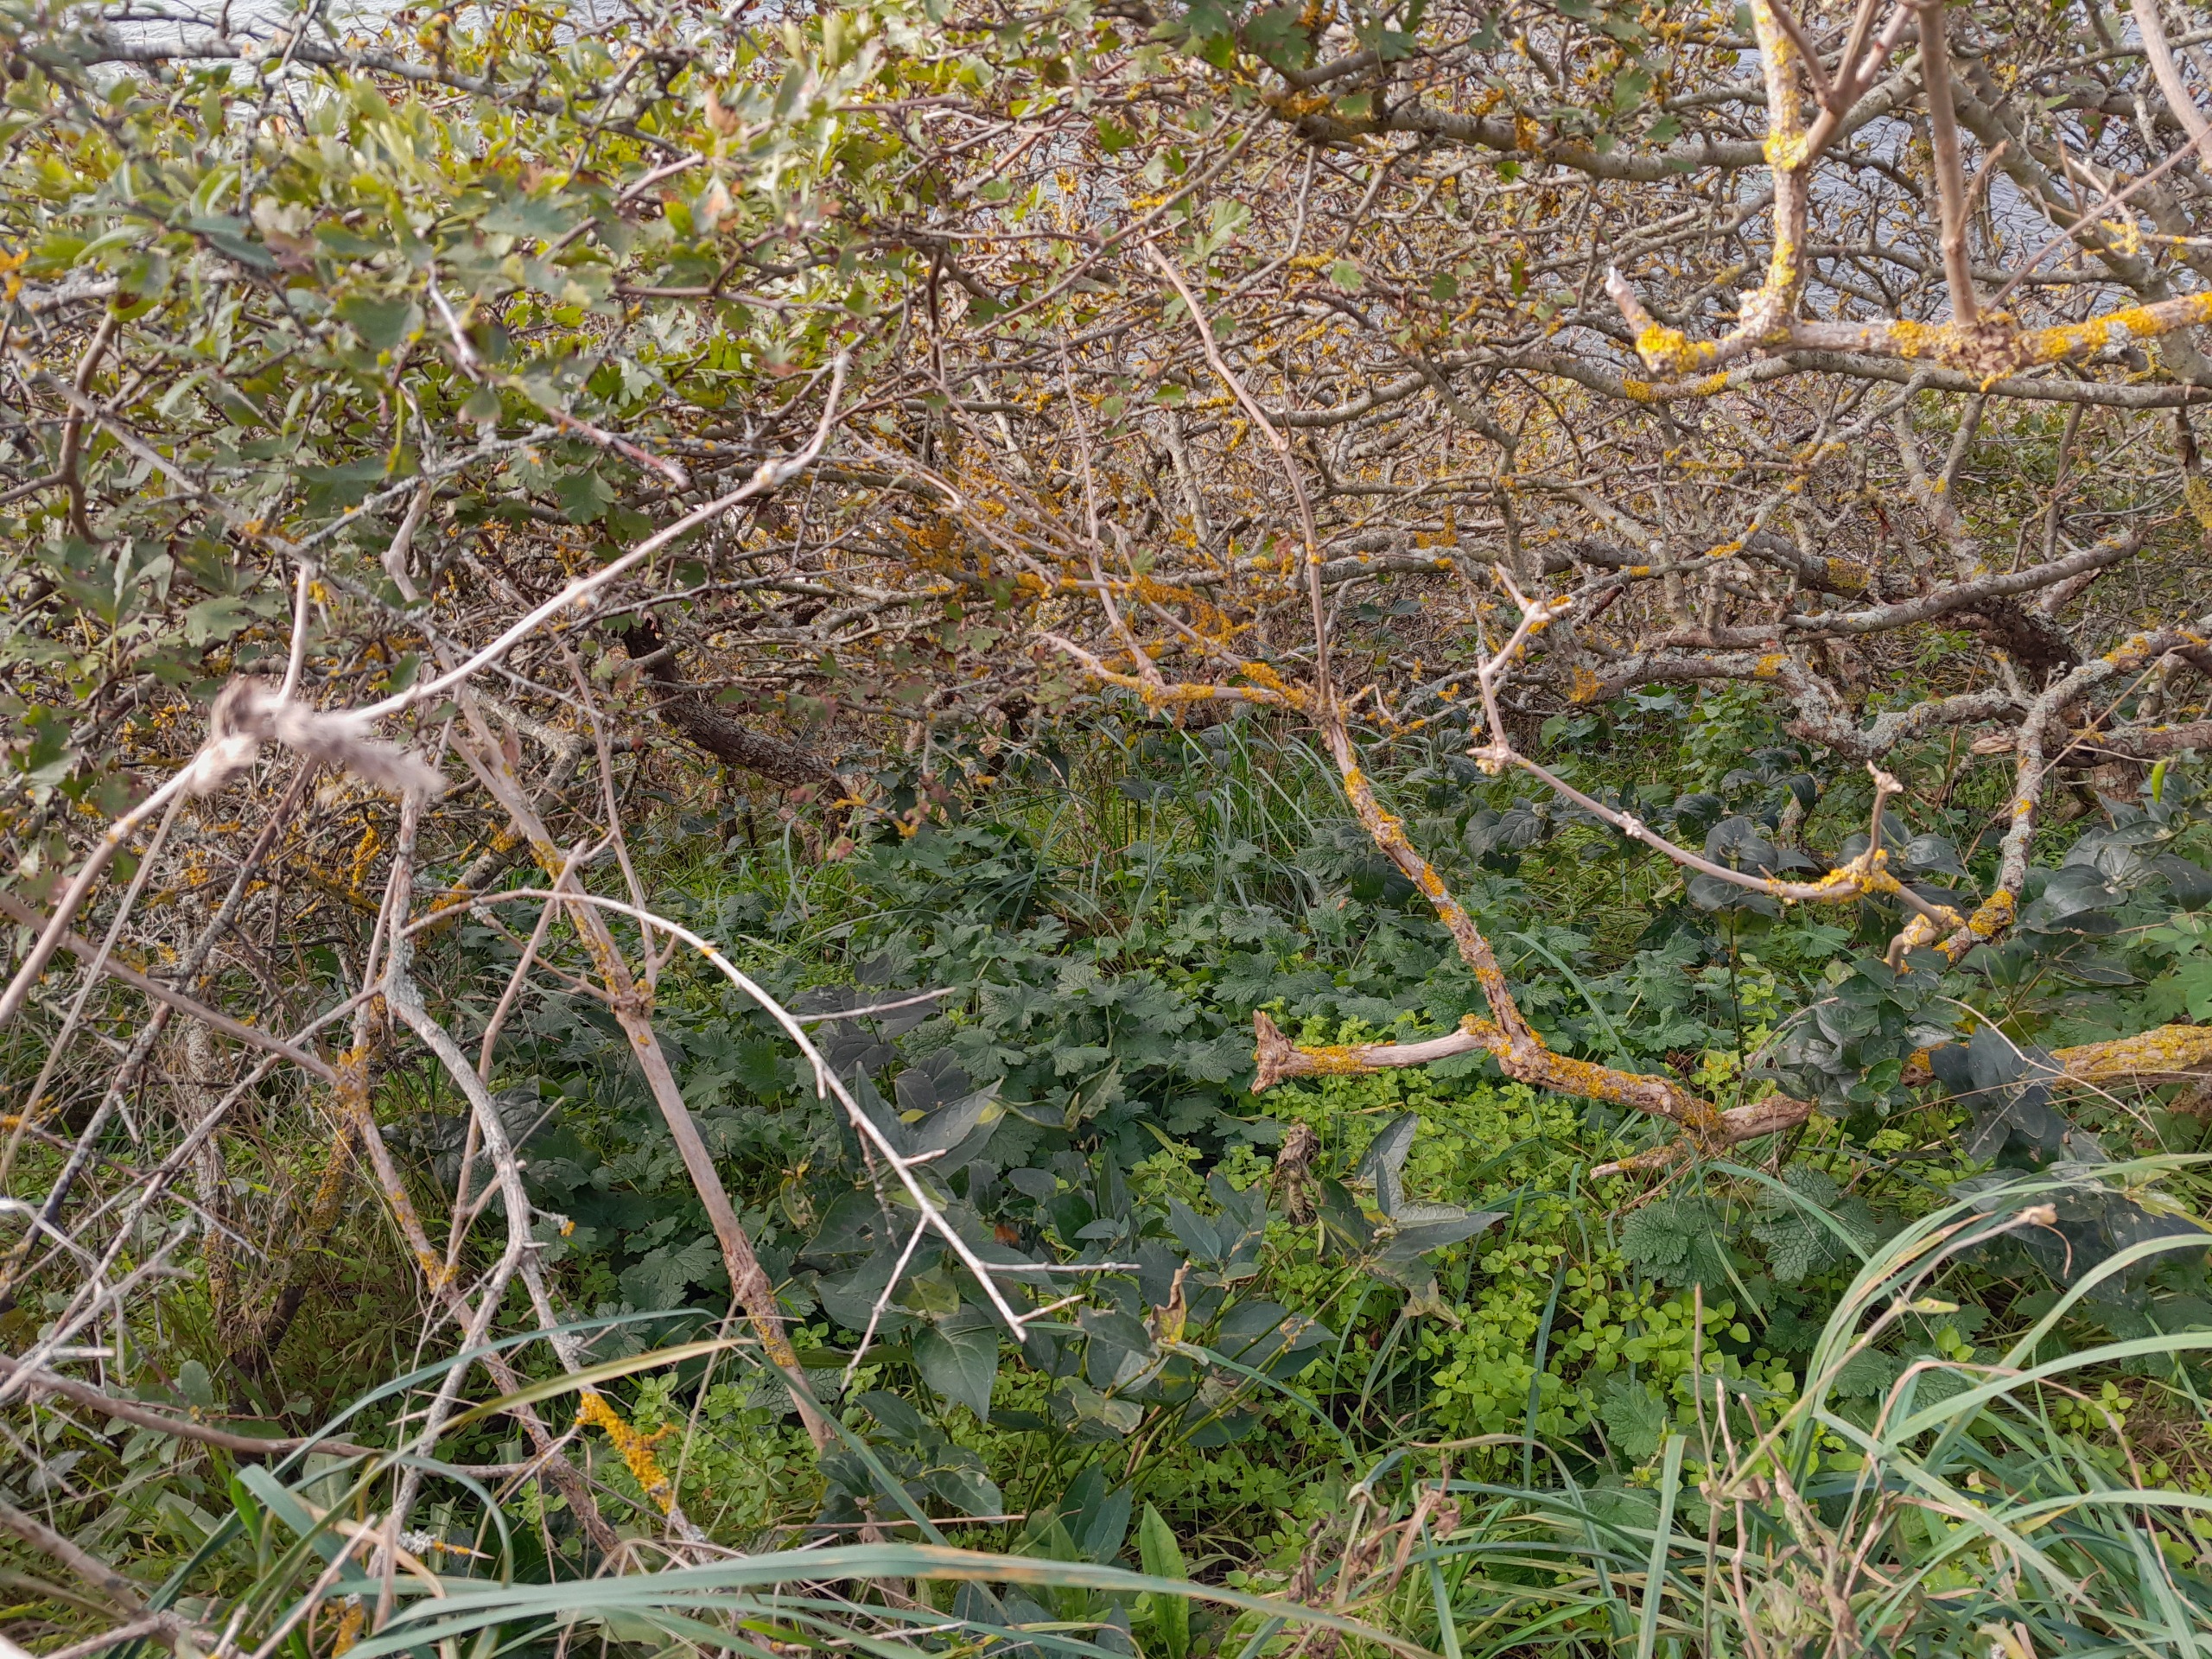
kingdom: Plantae
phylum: Tracheophyta
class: Magnoliopsida
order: Lamiales
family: Lamiaceae
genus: Leonurus
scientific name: Leonurus cardiaca
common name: Hjertespand
